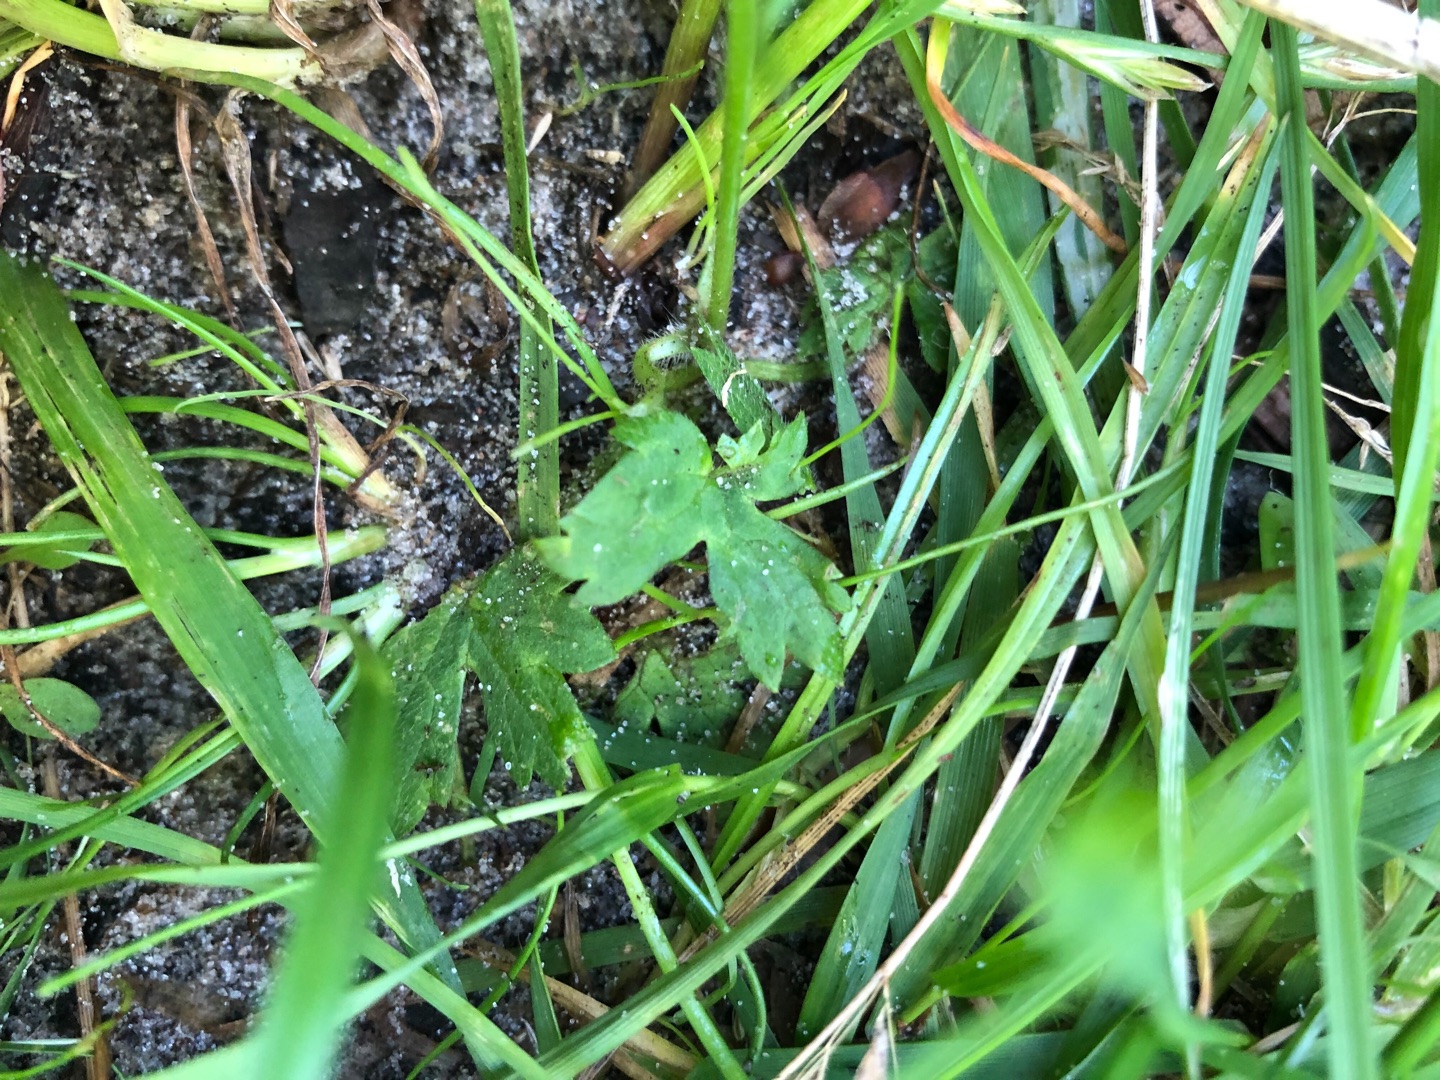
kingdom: Plantae
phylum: Tracheophyta
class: Magnoliopsida
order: Ranunculales
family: Ranunculaceae
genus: Ranunculus
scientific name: Ranunculus acris
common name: Bidende ranunkel
